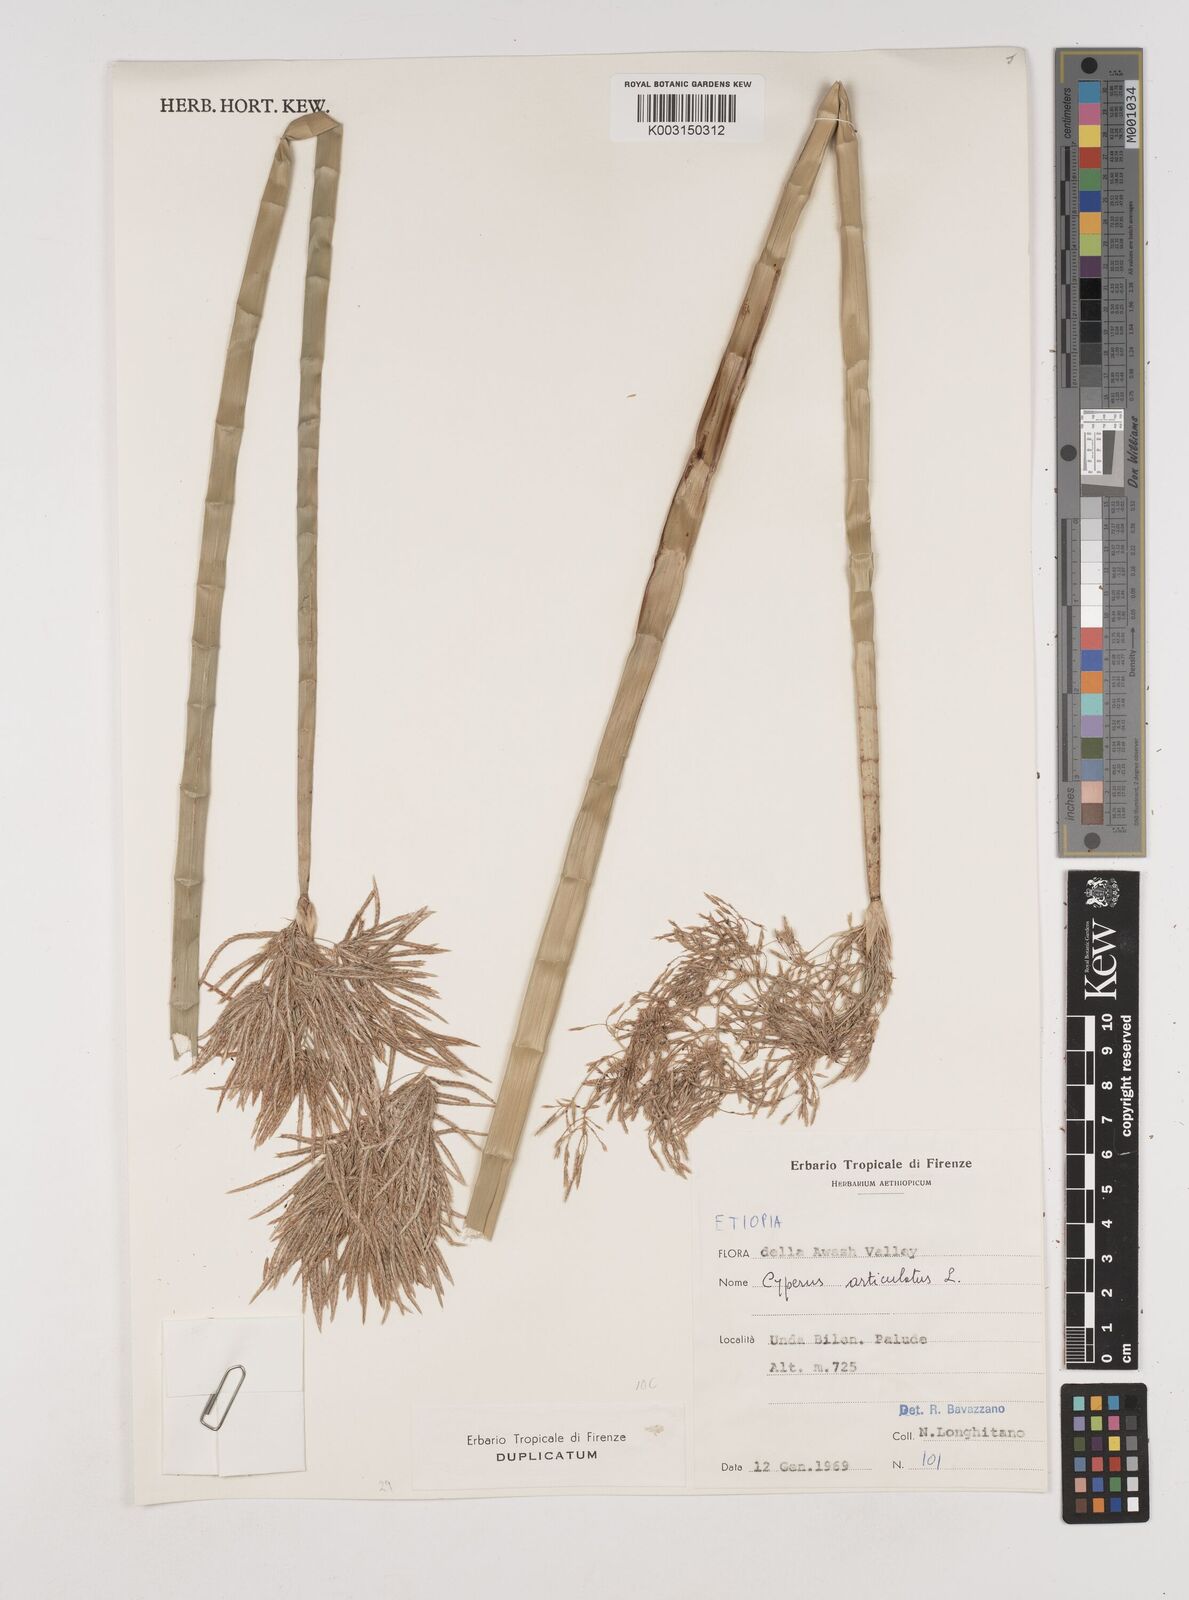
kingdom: Plantae
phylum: Tracheophyta
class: Liliopsida
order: Poales
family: Cyperaceae
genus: Cyperus
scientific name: Cyperus articulatus
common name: Jointed flatsedge
